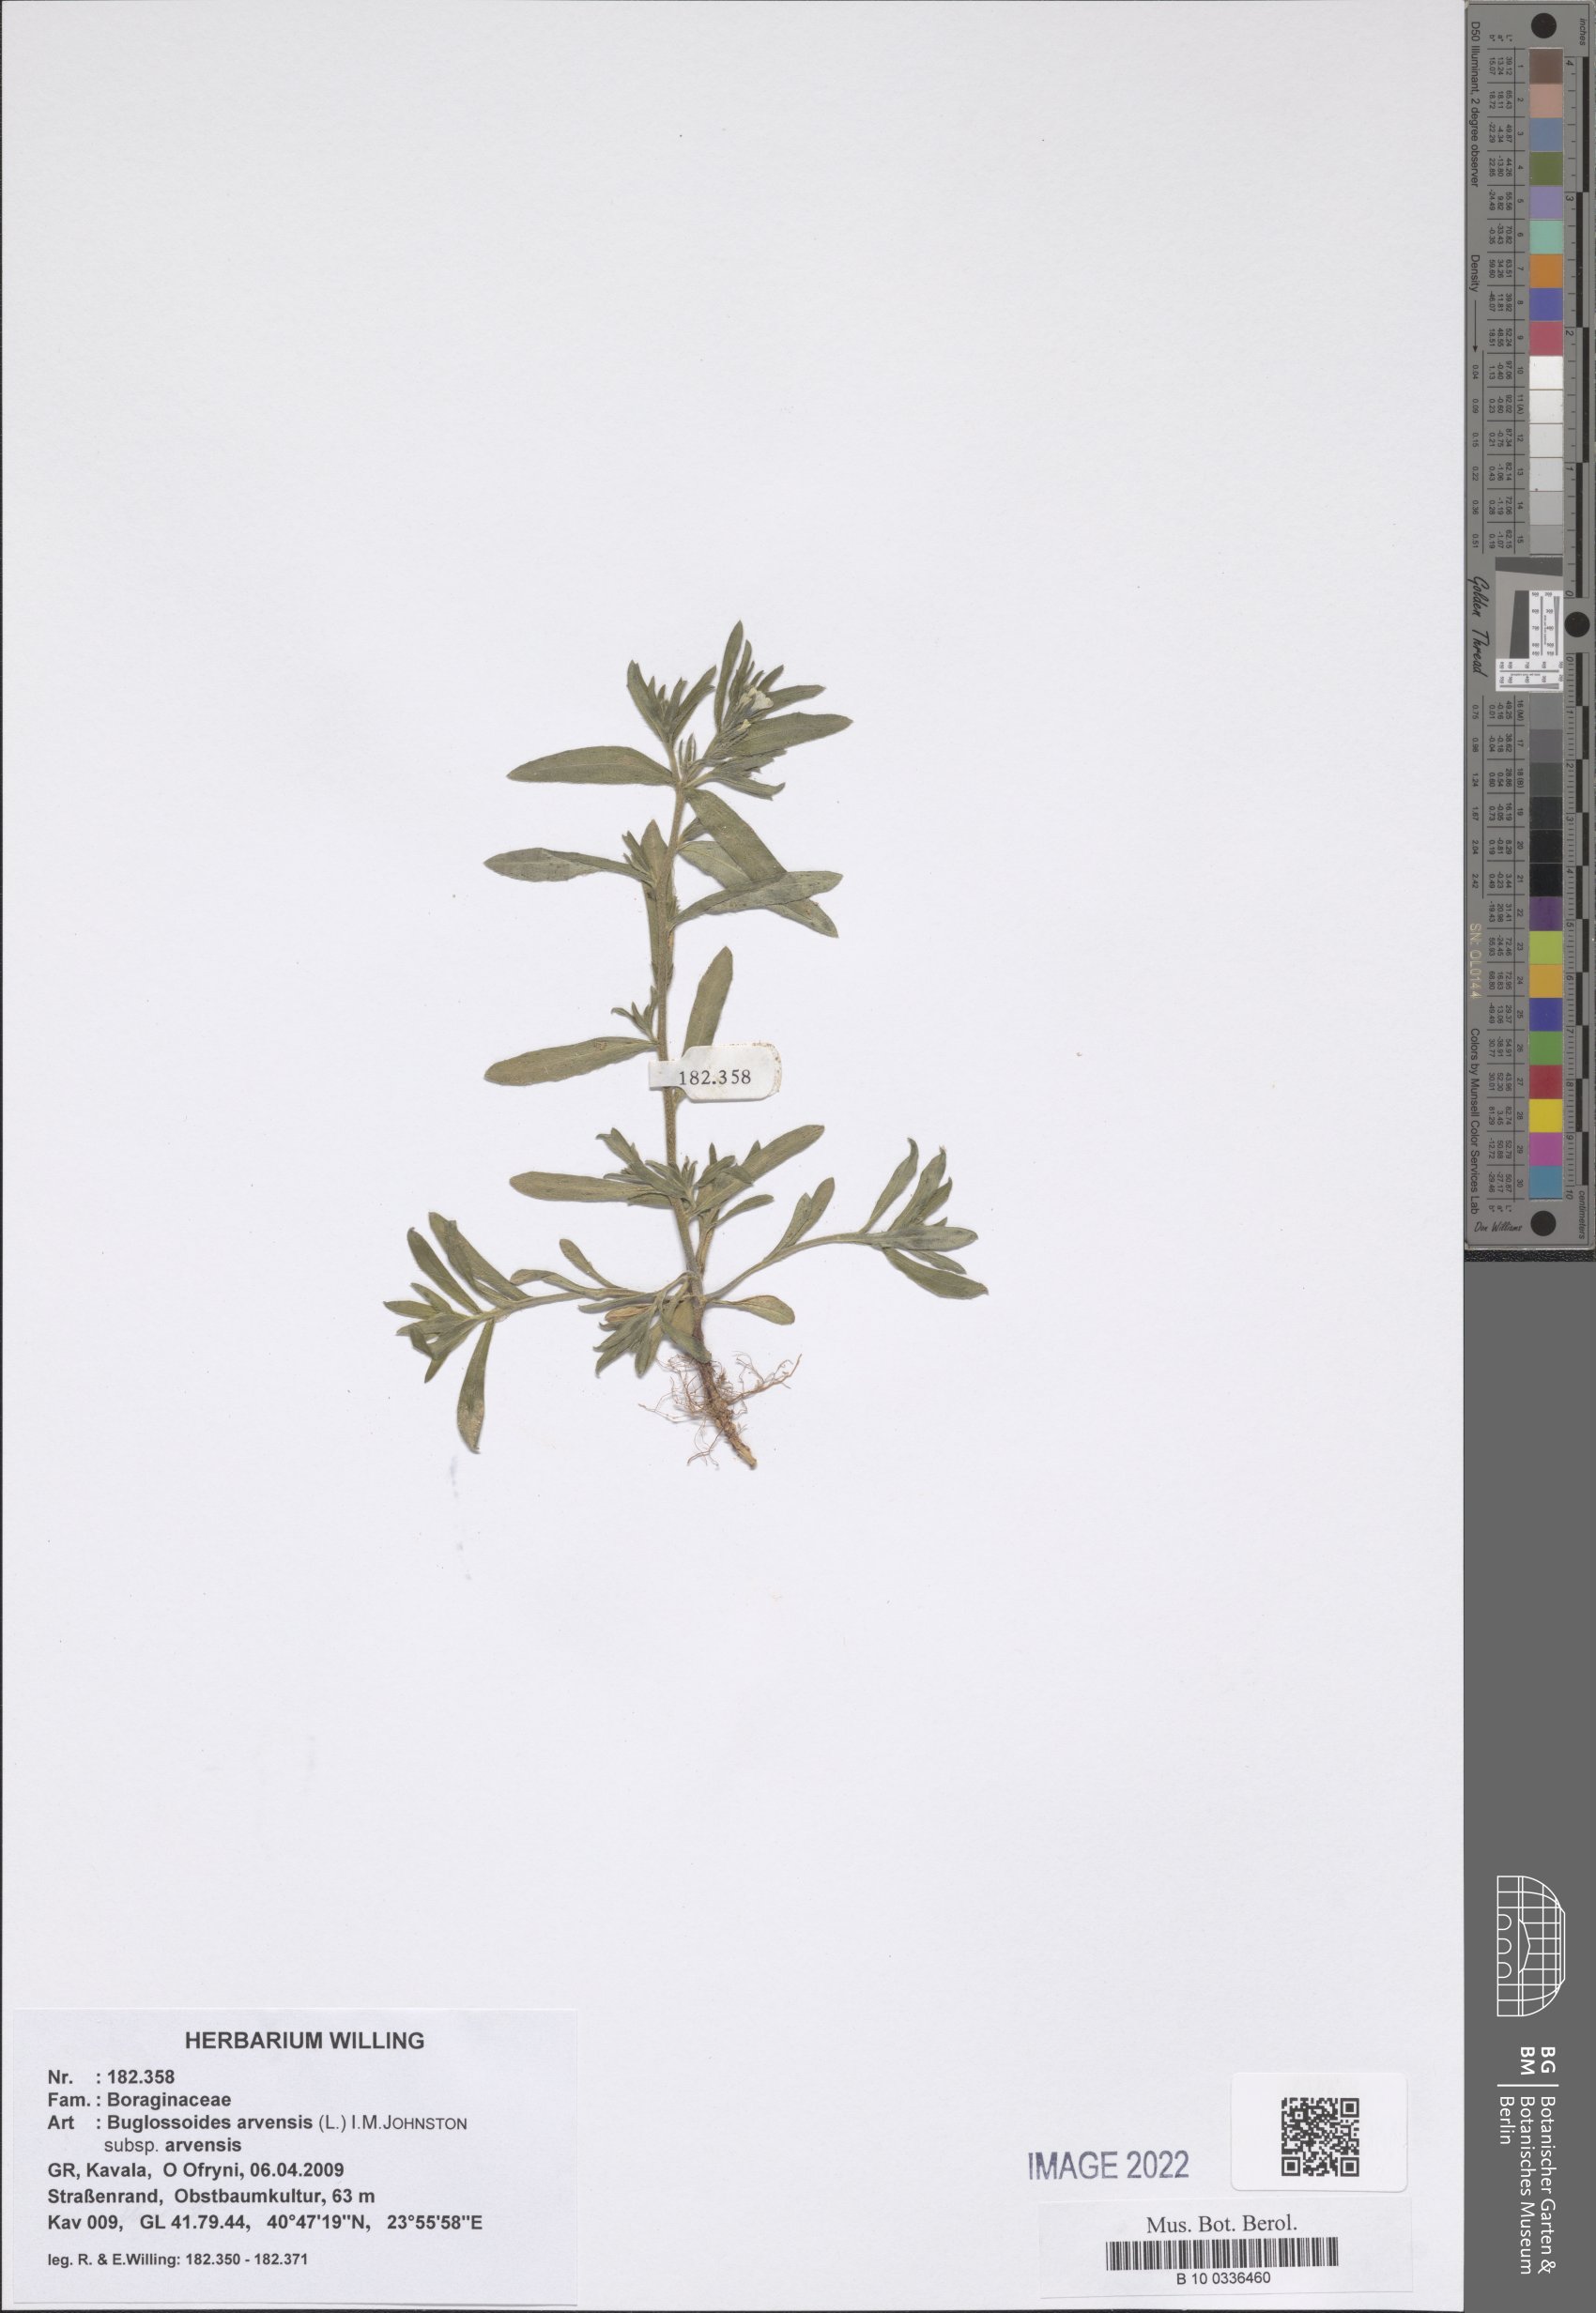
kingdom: Plantae
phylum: Tracheophyta
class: Magnoliopsida
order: Boraginales
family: Boraginaceae
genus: Buglossoides
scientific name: Buglossoides arvensis
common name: Corn gromwell
